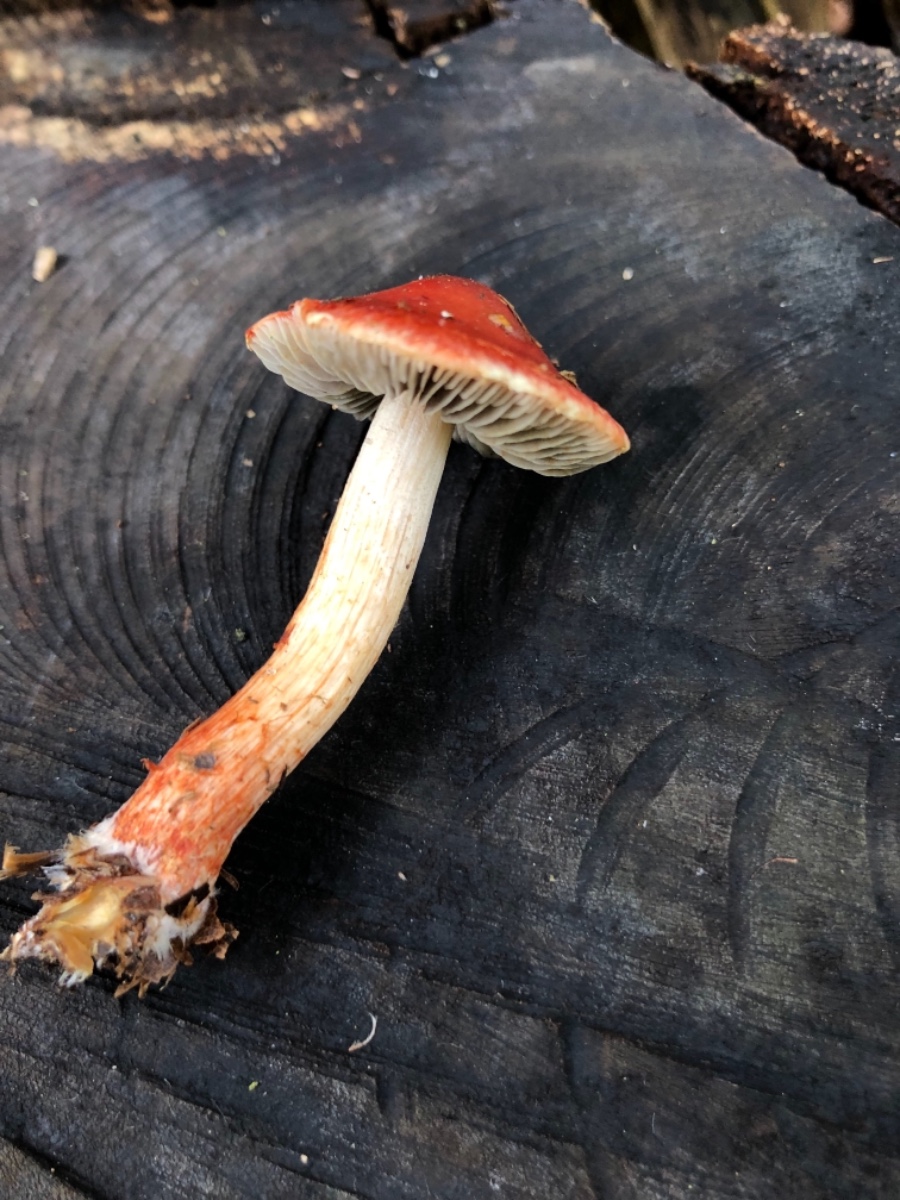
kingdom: Fungi
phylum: Basidiomycota
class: Agaricomycetes
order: Agaricales
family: Strophariaceae
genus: Leratiomyces
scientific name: Leratiomyces ceres
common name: orange bredblad
